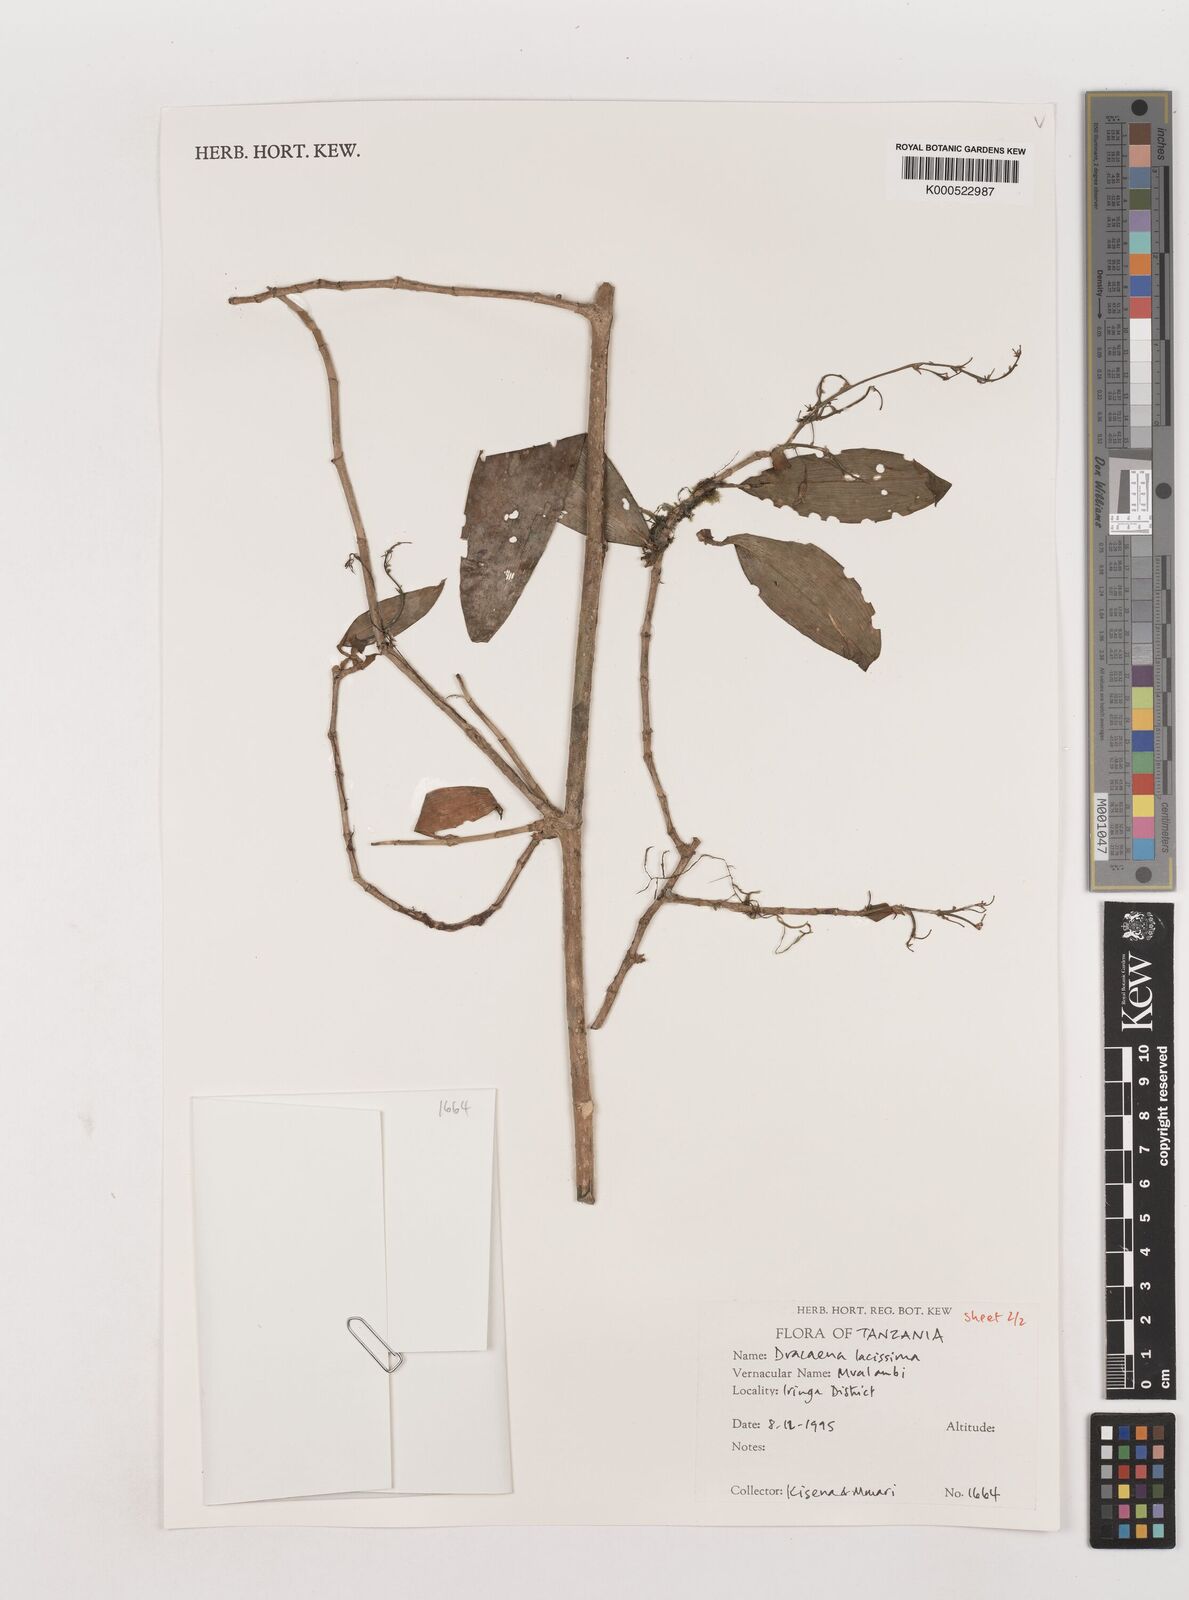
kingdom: Plantae
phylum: Tracheophyta
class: Liliopsida
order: Asparagales
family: Asparagaceae
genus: Dracaena
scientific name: Dracaena laxissima
